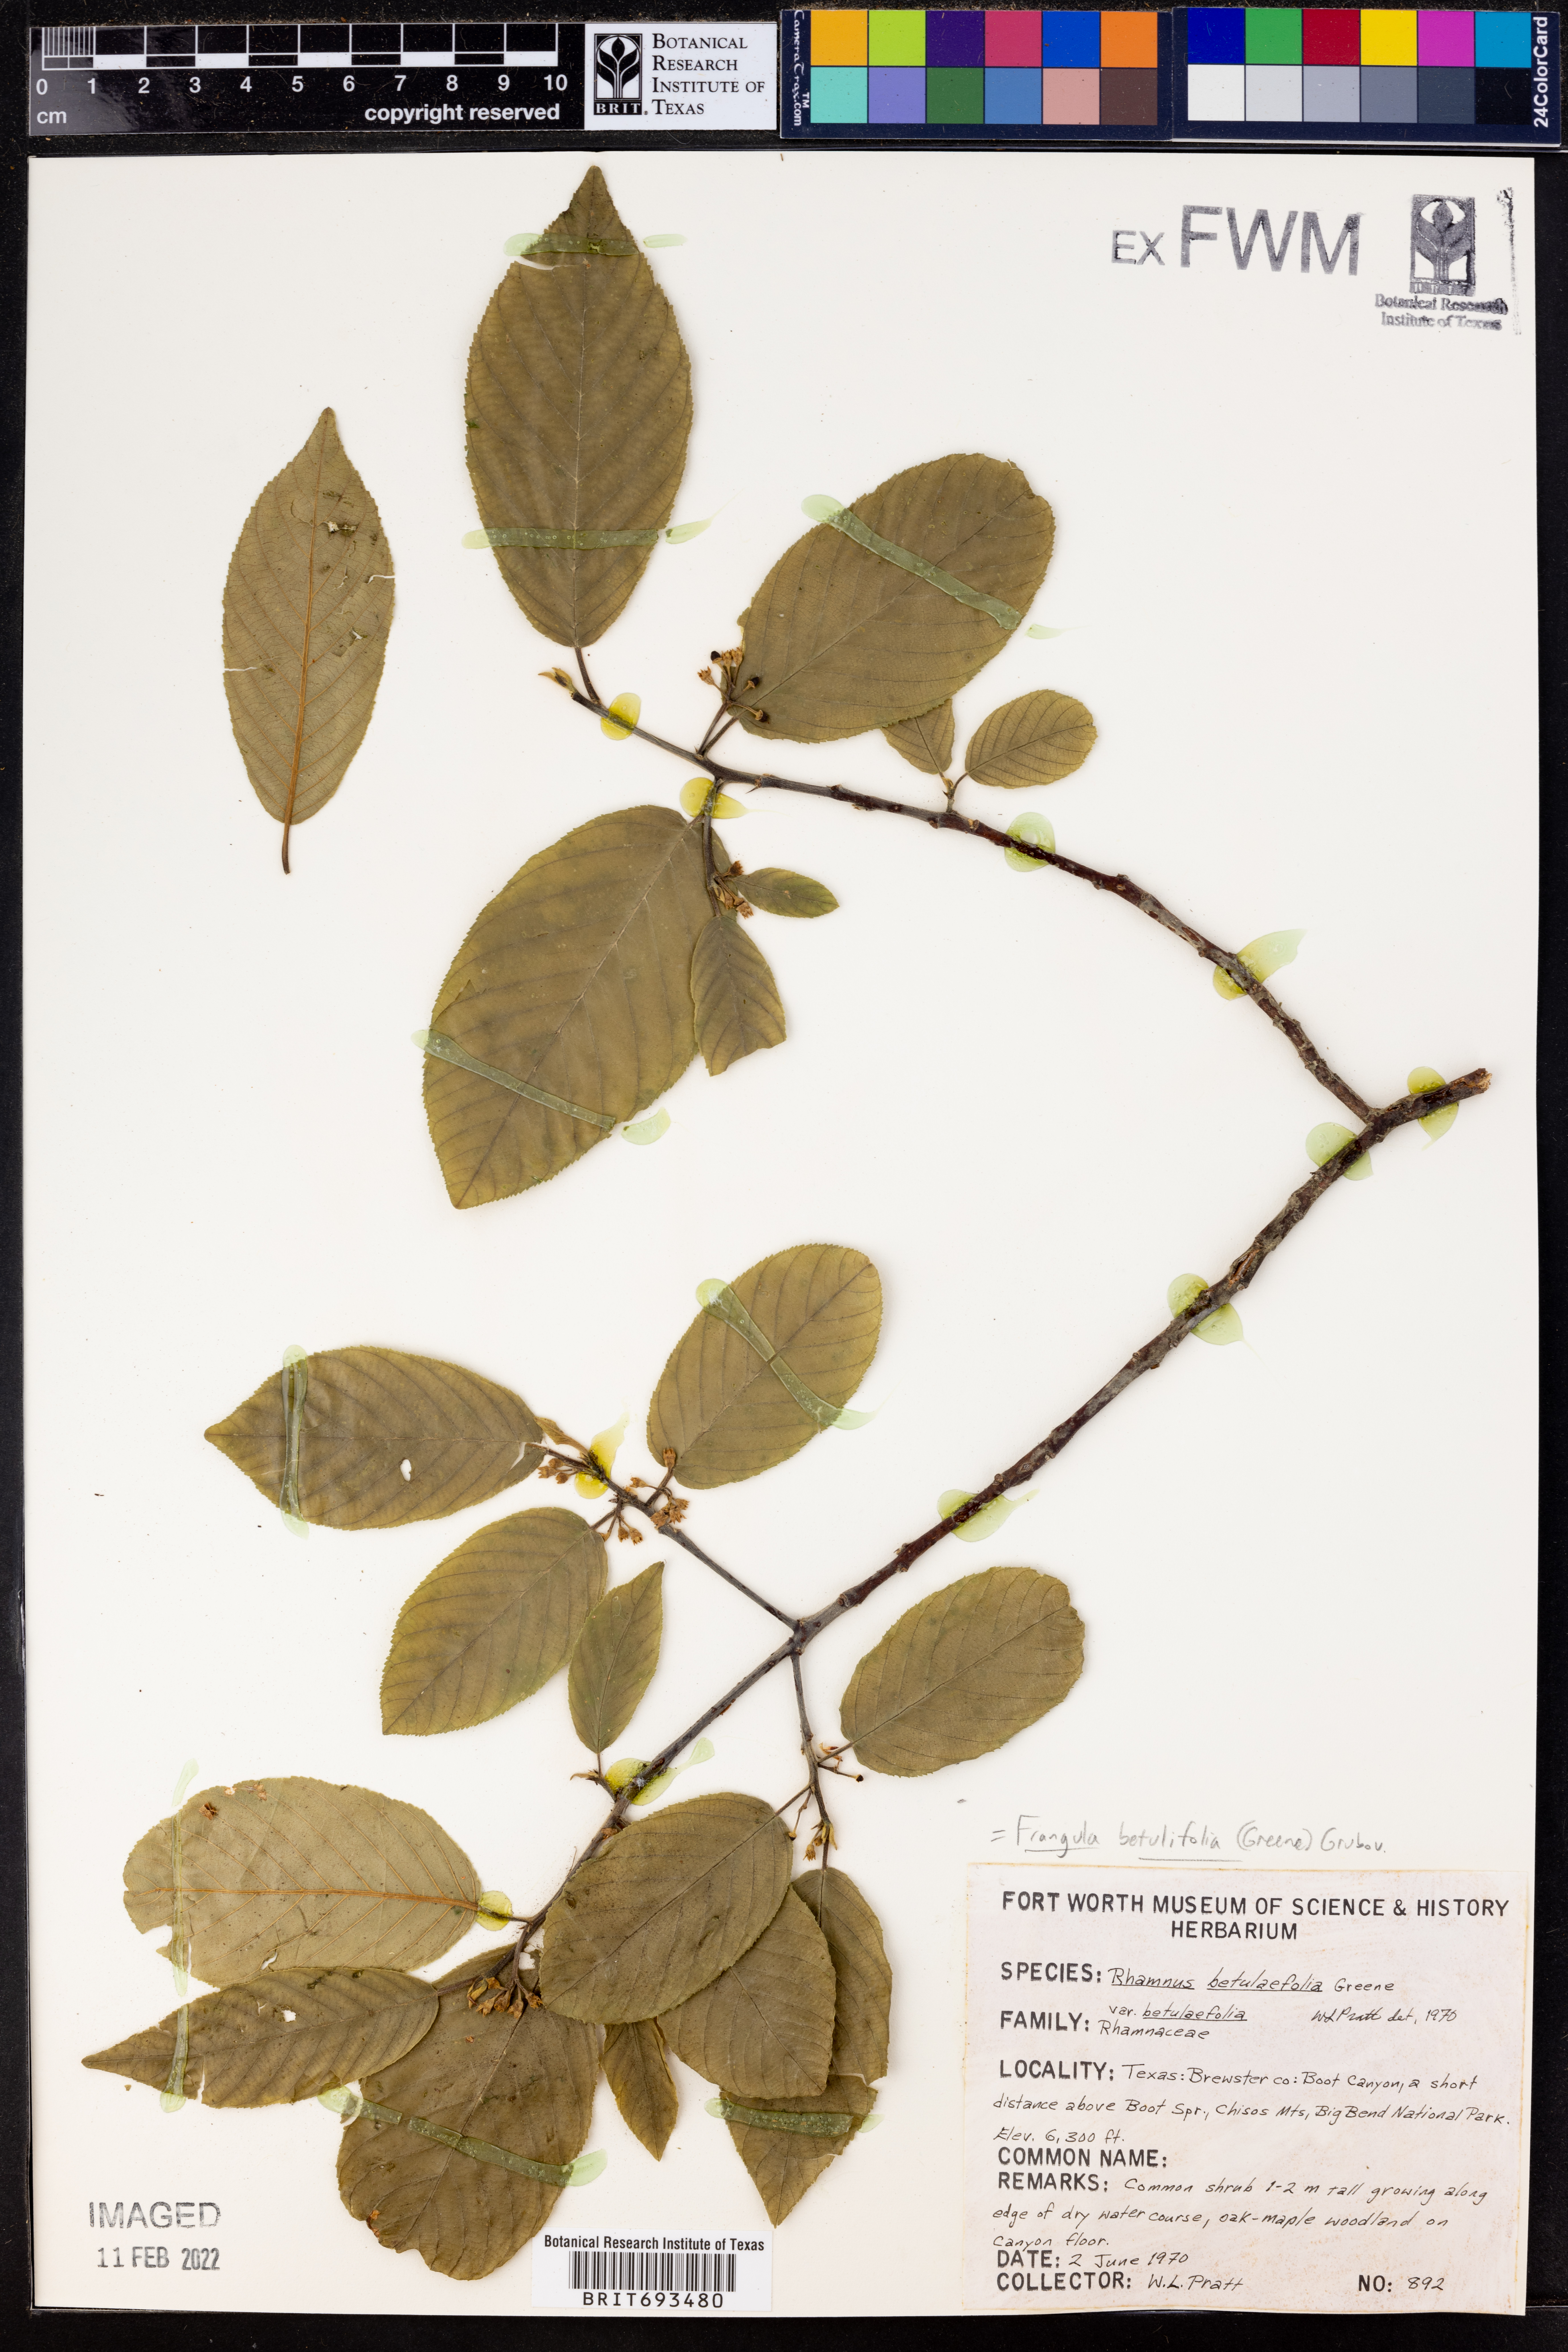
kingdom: Plantae
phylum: Tracheophyta
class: Magnoliopsida
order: Rosales
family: Rhamnaceae
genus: Frangula
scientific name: Frangula betulifolia
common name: Birch-leaf buckthorn
